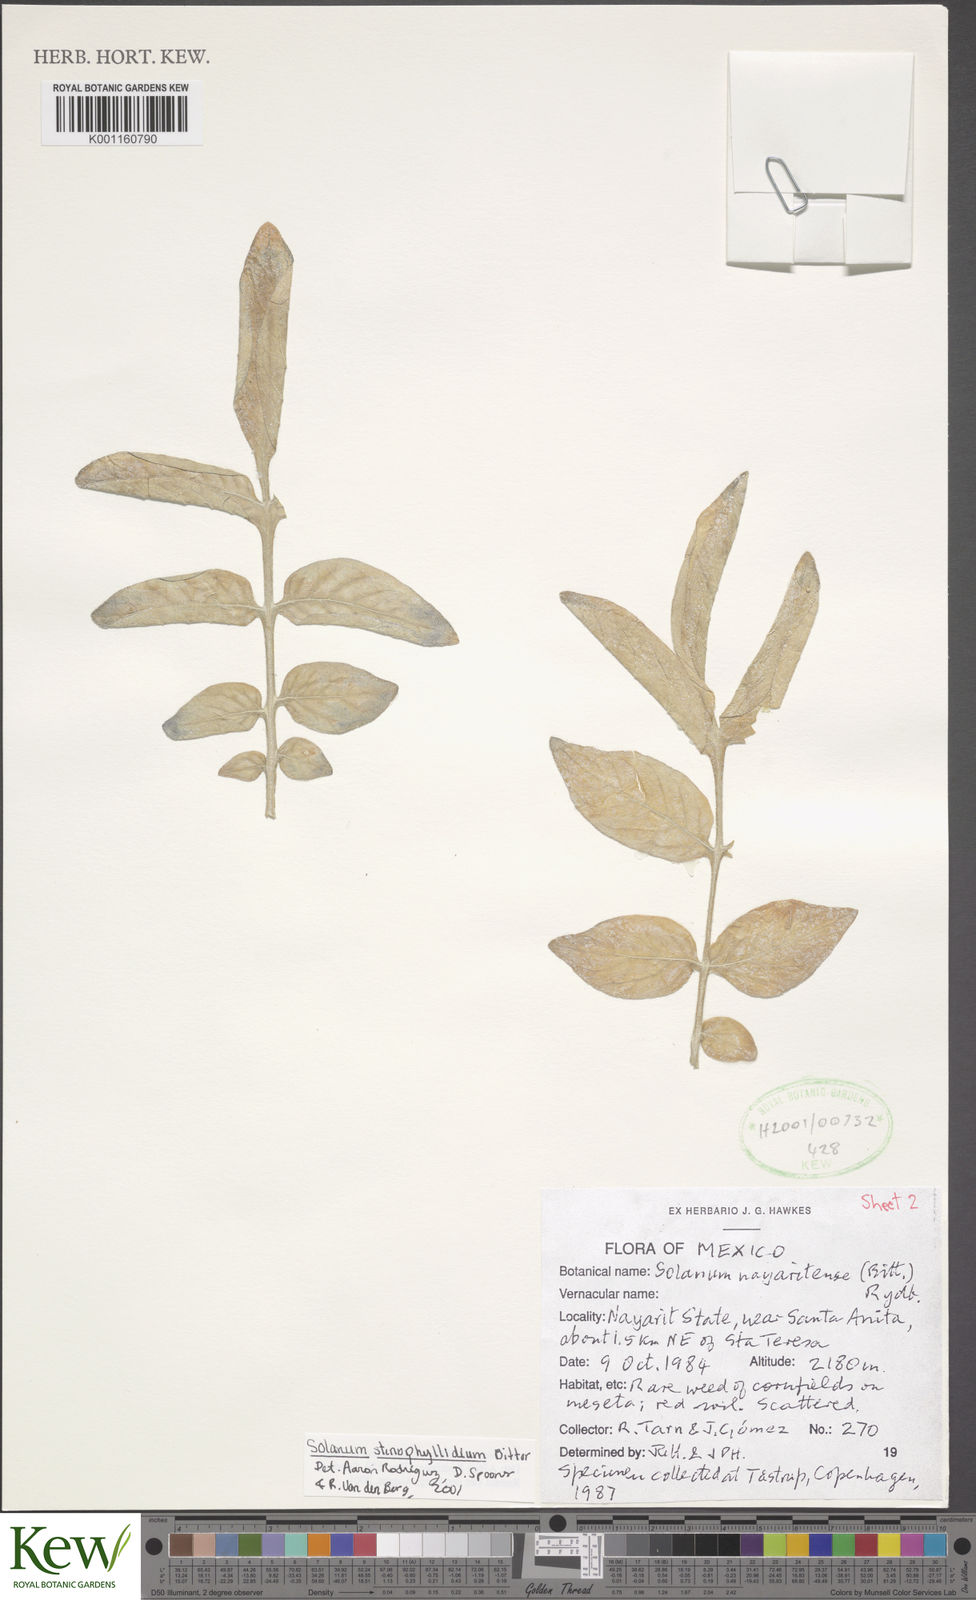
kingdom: Plantae
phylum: Tracheophyta
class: Magnoliopsida
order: Solanales
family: Solanaceae
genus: Solanum
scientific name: Solanum stenophyllidium
